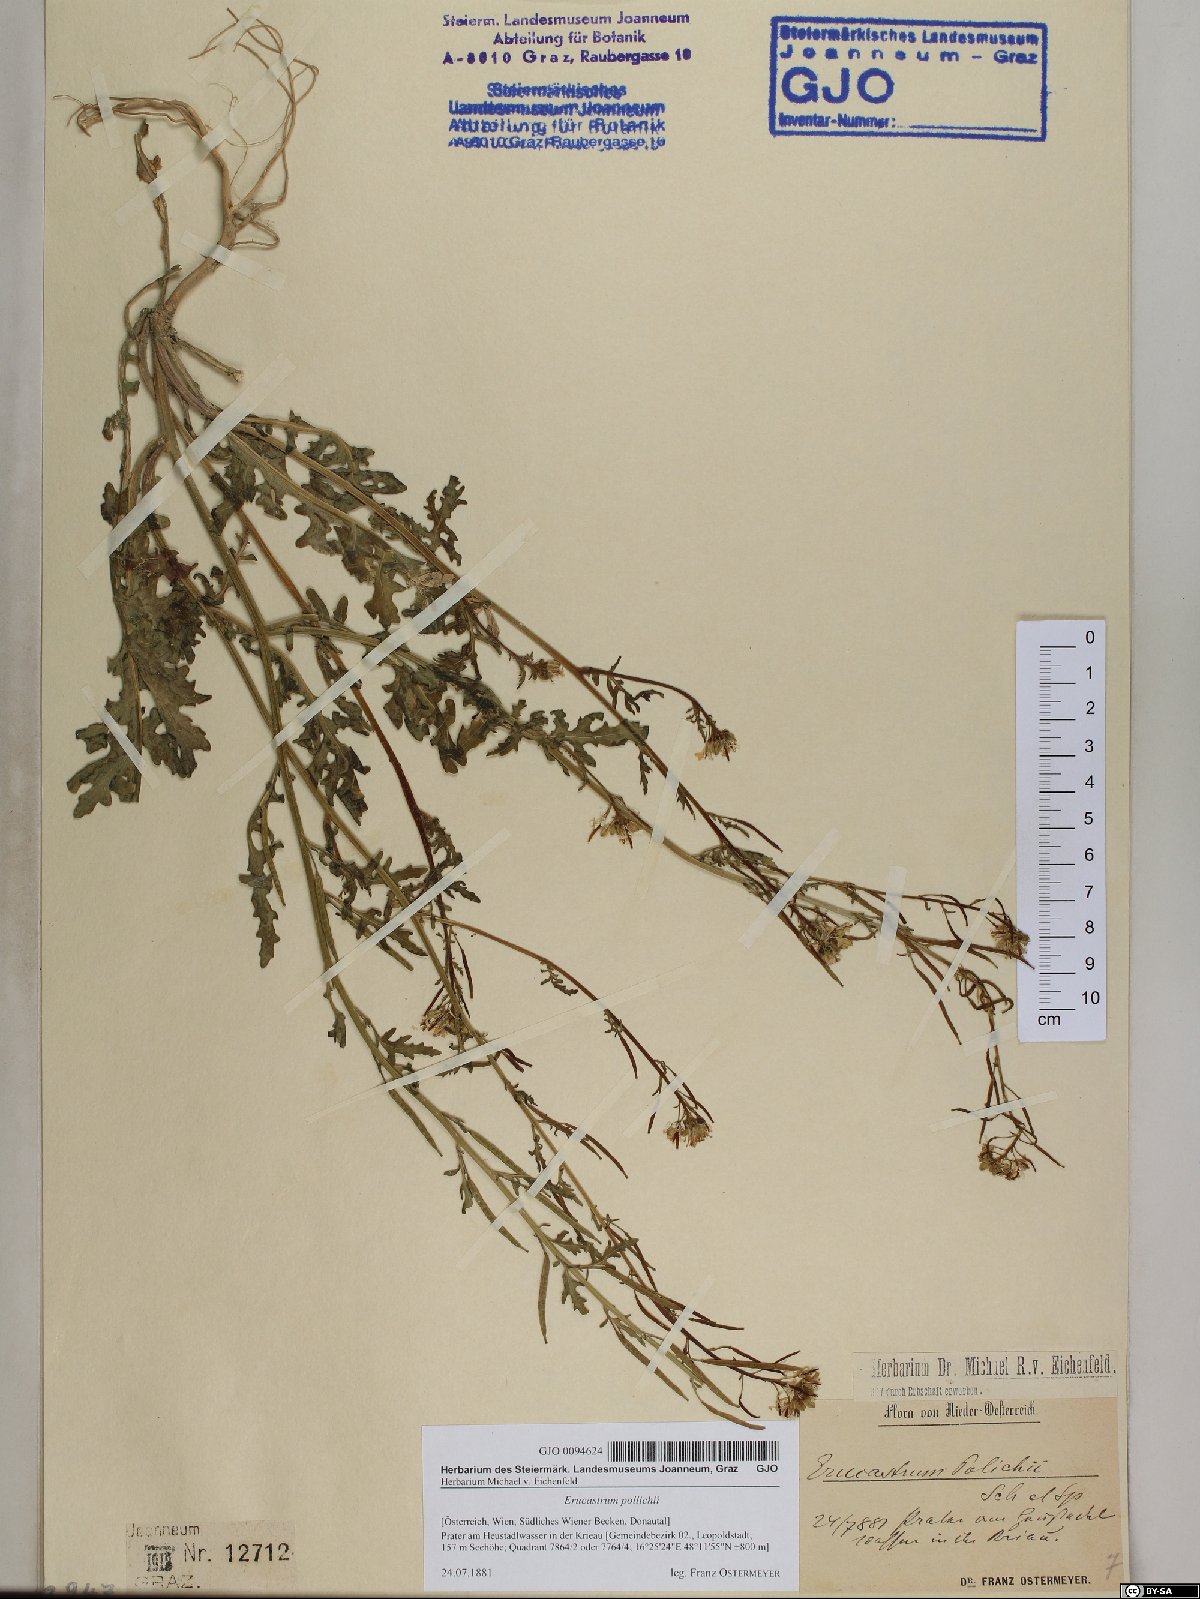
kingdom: Plantae
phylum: Tracheophyta
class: Magnoliopsida
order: Brassicales
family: Brassicaceae
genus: Erucastrum
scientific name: Erucastrum gallicum
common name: Hairy rocket
